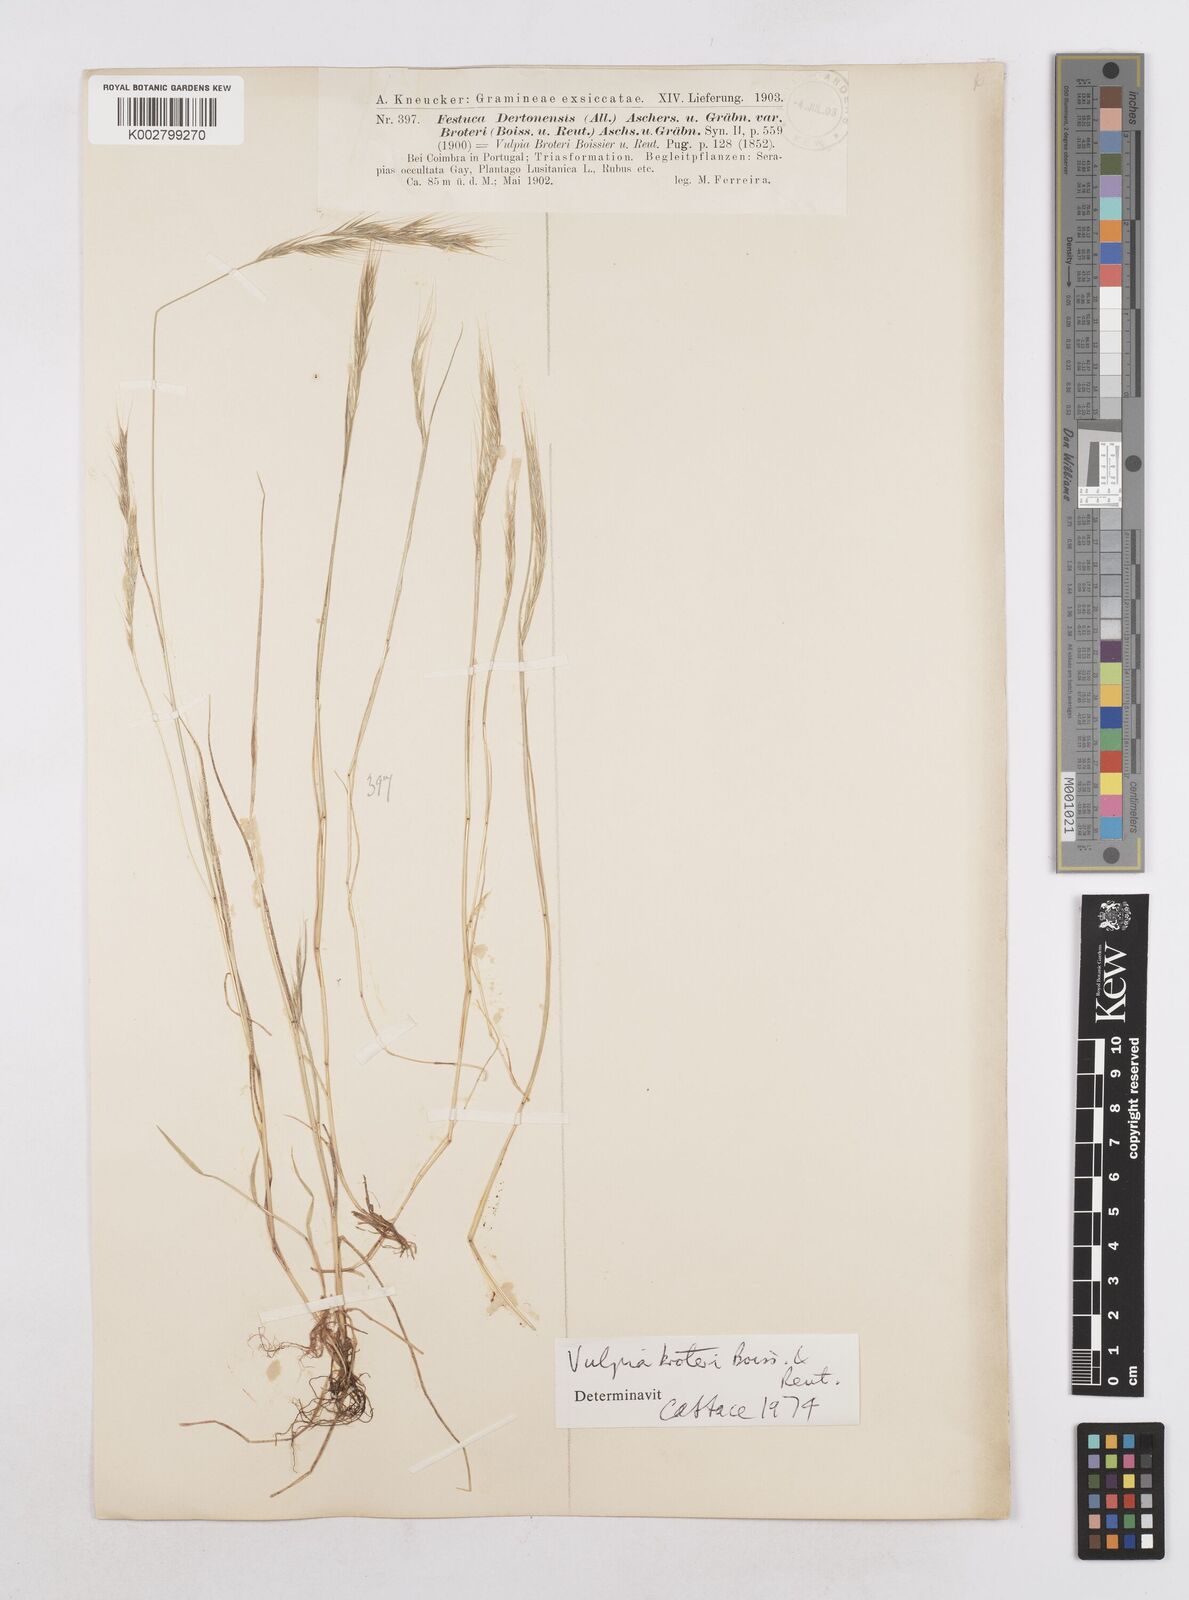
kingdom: Plantae
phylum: Tracheophyta
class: Liliopsida
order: Poales
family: Poaceae
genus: Festuca
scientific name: Festuca muralis
